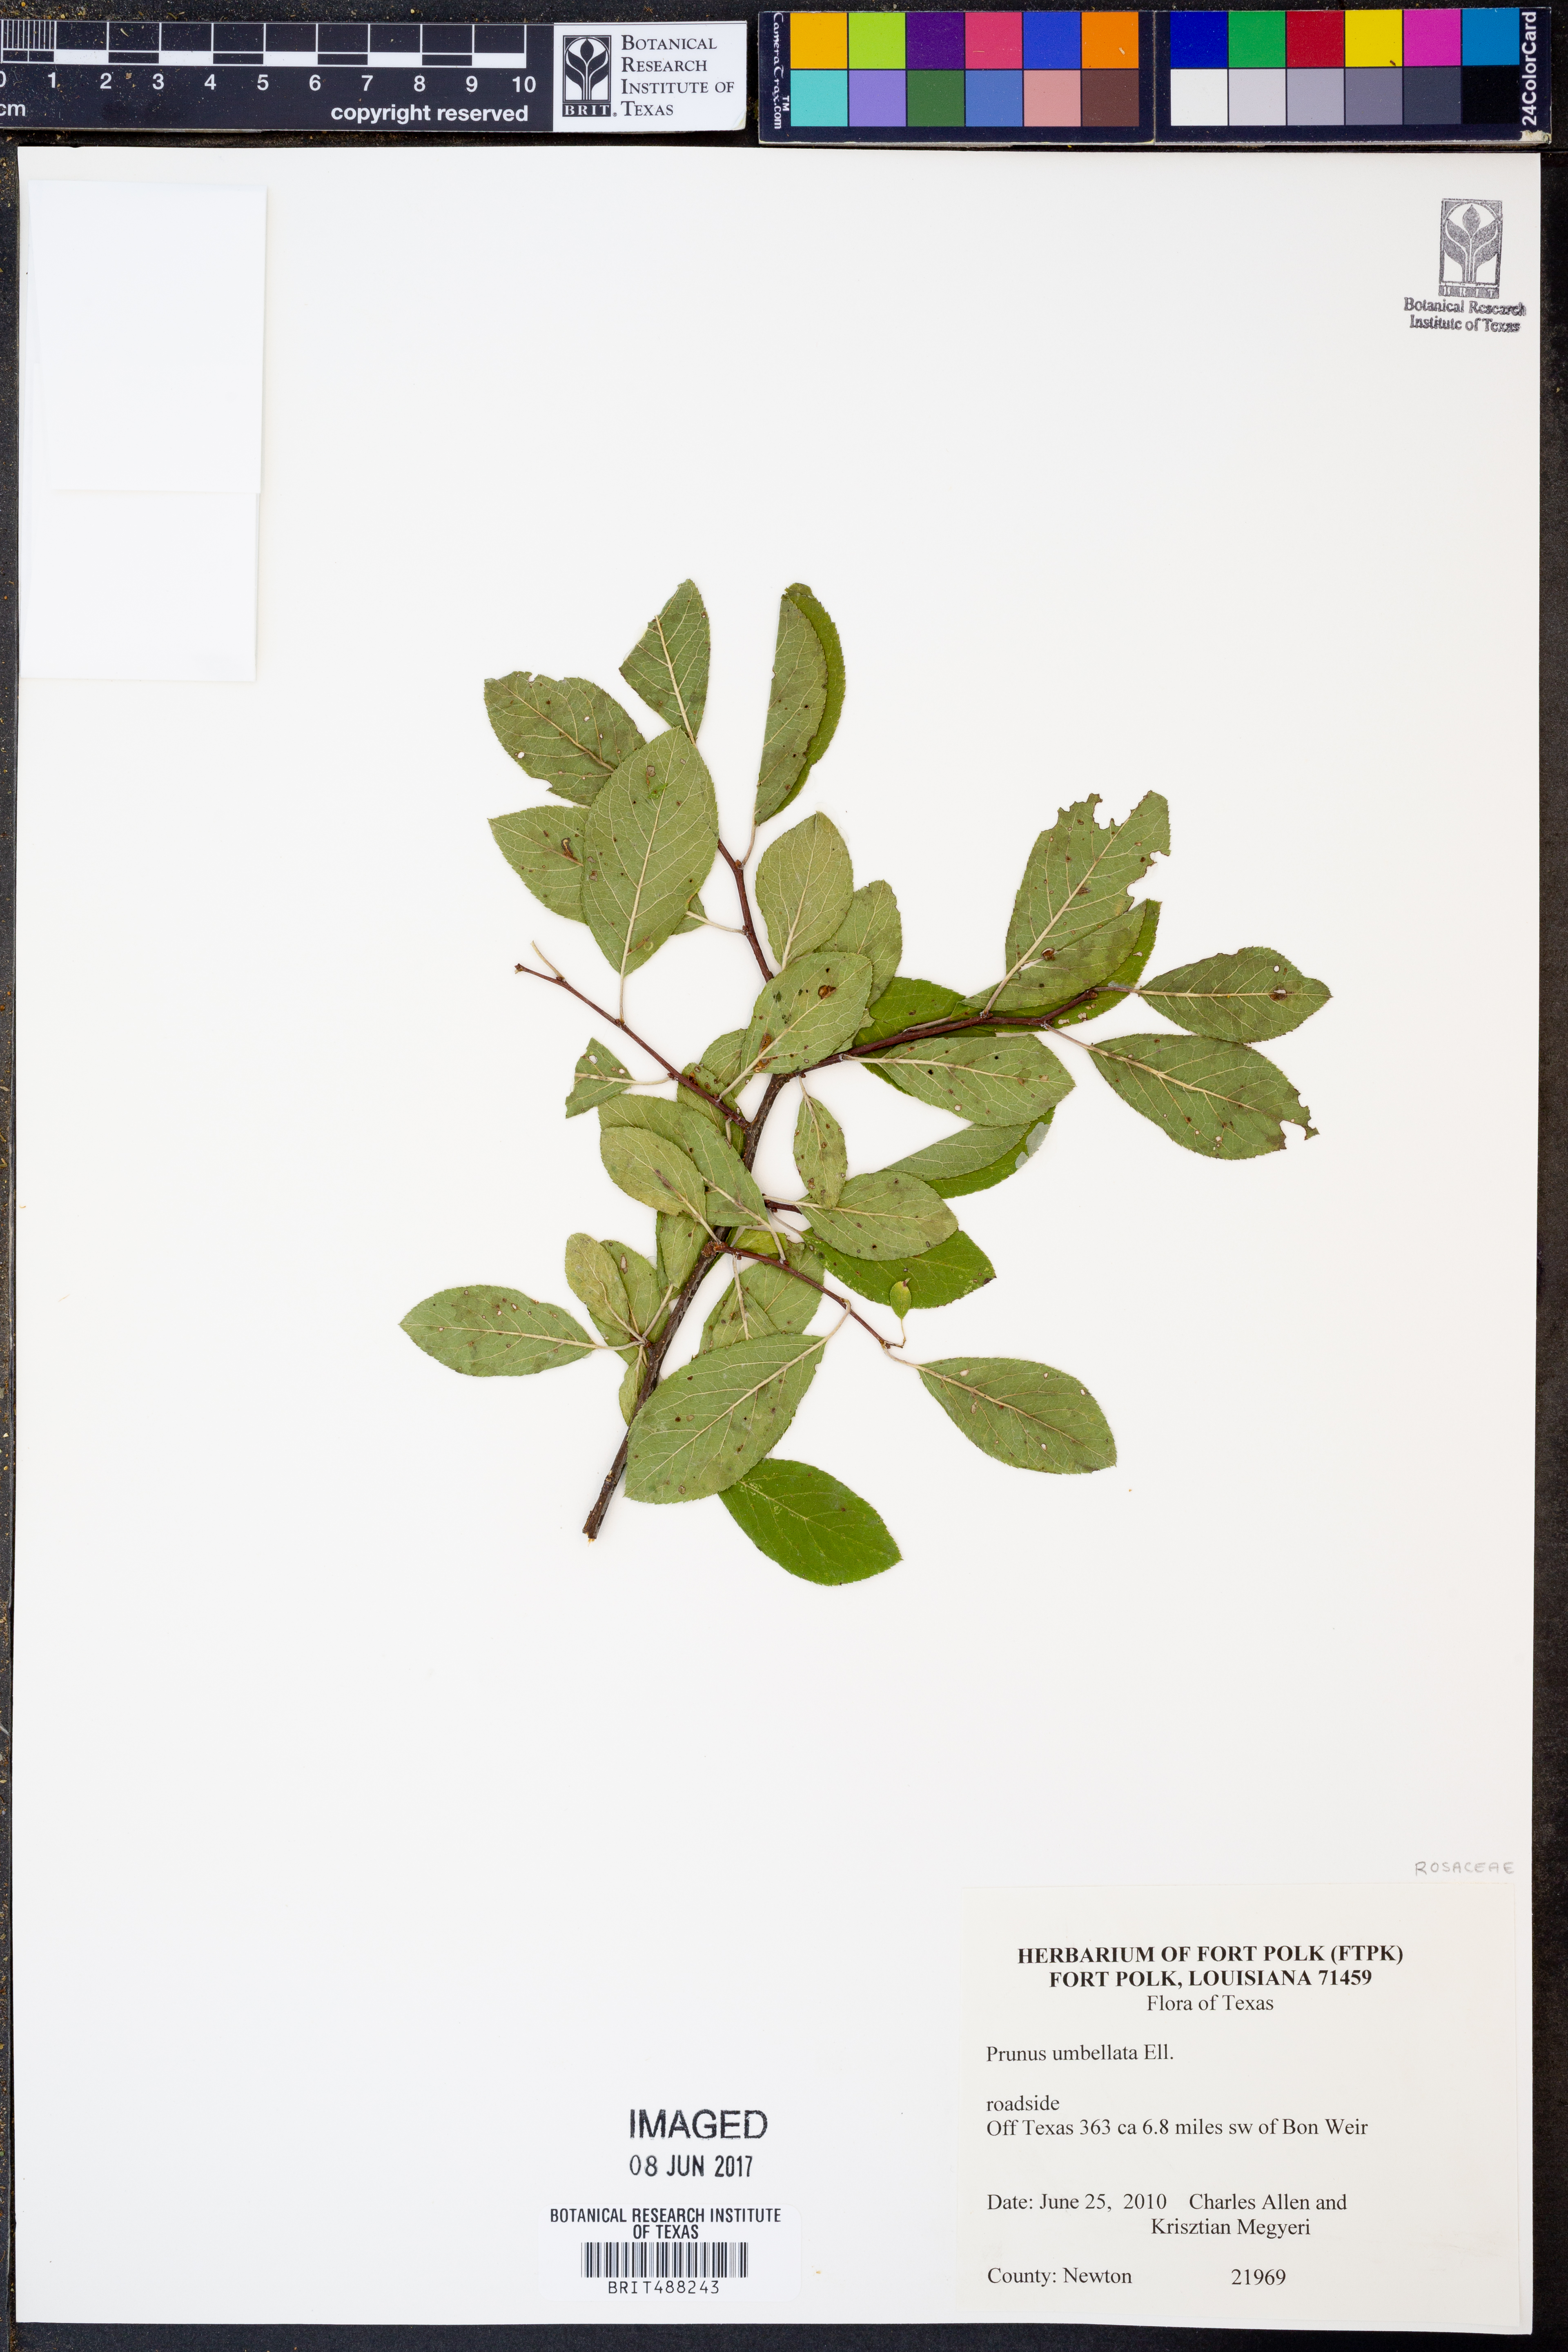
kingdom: Plantae
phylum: Tracheophyta
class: Magnoliopsida
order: Rosales
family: Rosaceae
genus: Prunus
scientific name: Prunus umbellata
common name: Allegheny plum
